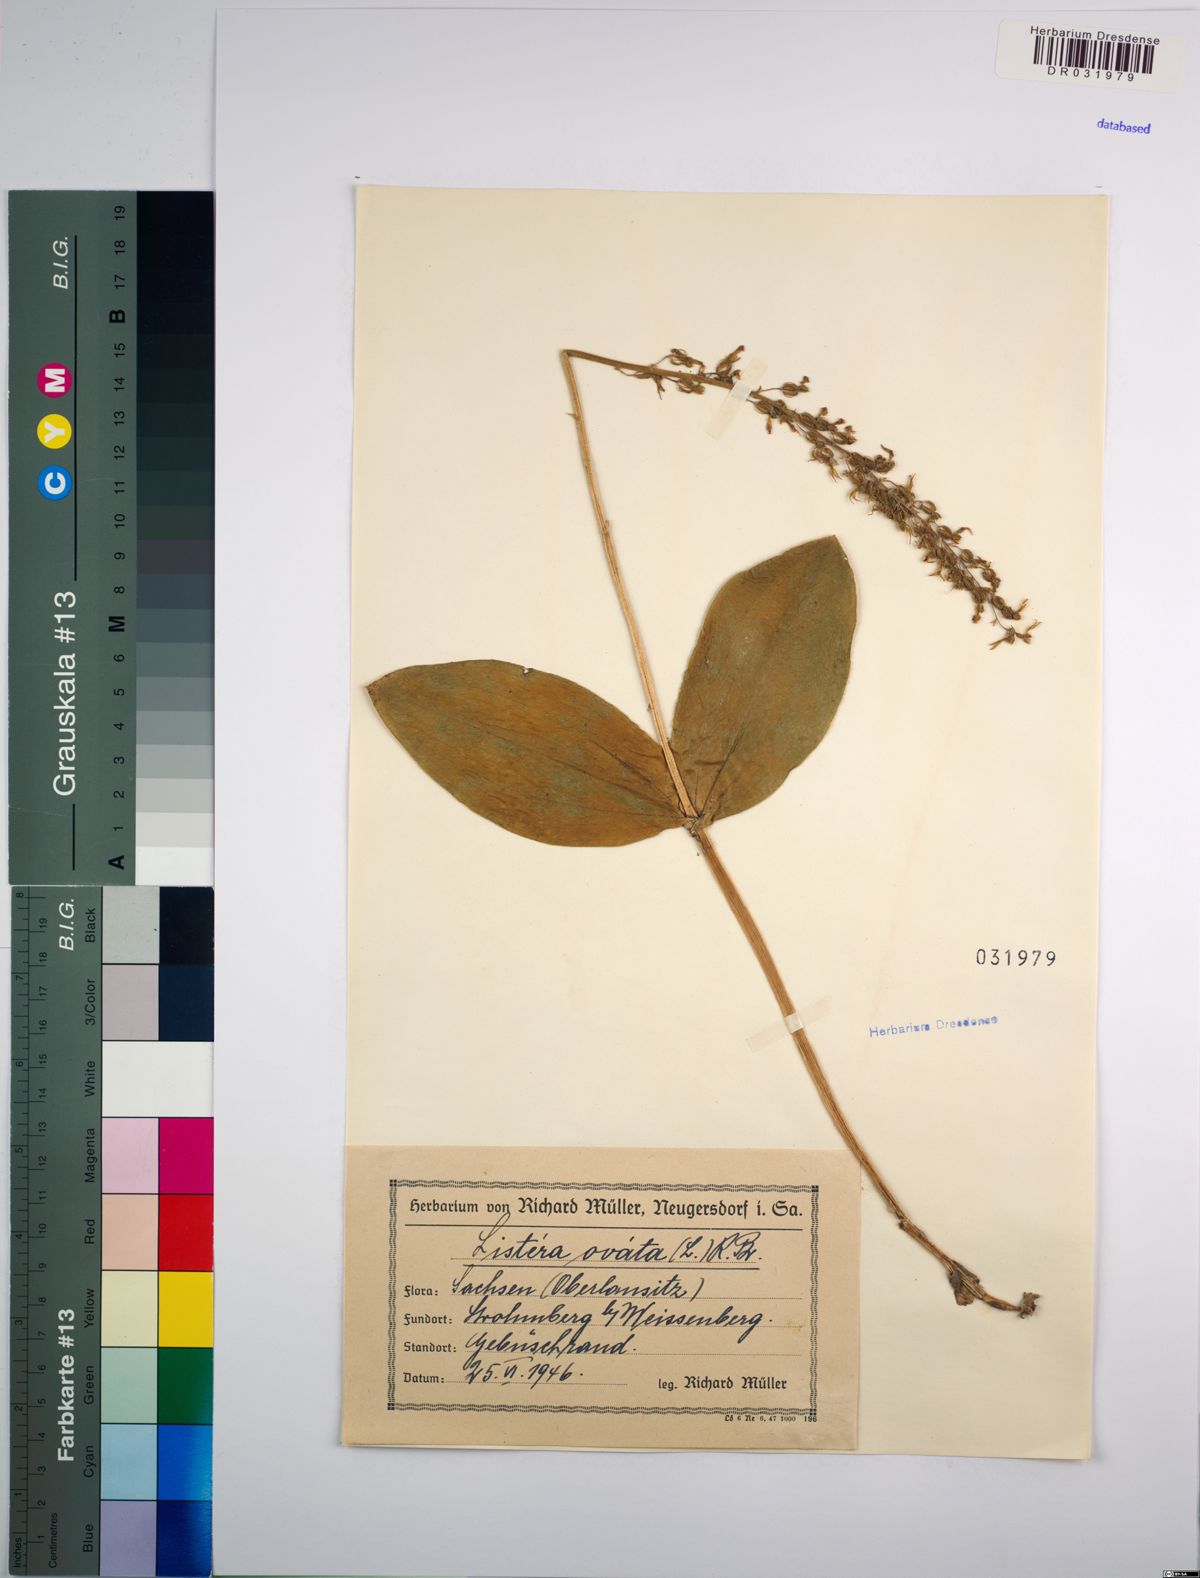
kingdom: Plantae
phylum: Tracheophyta
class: Liliopsida
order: Asparagales
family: Orchidaceae
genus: Neottia
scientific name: Neottia ovata
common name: Common twayblade
